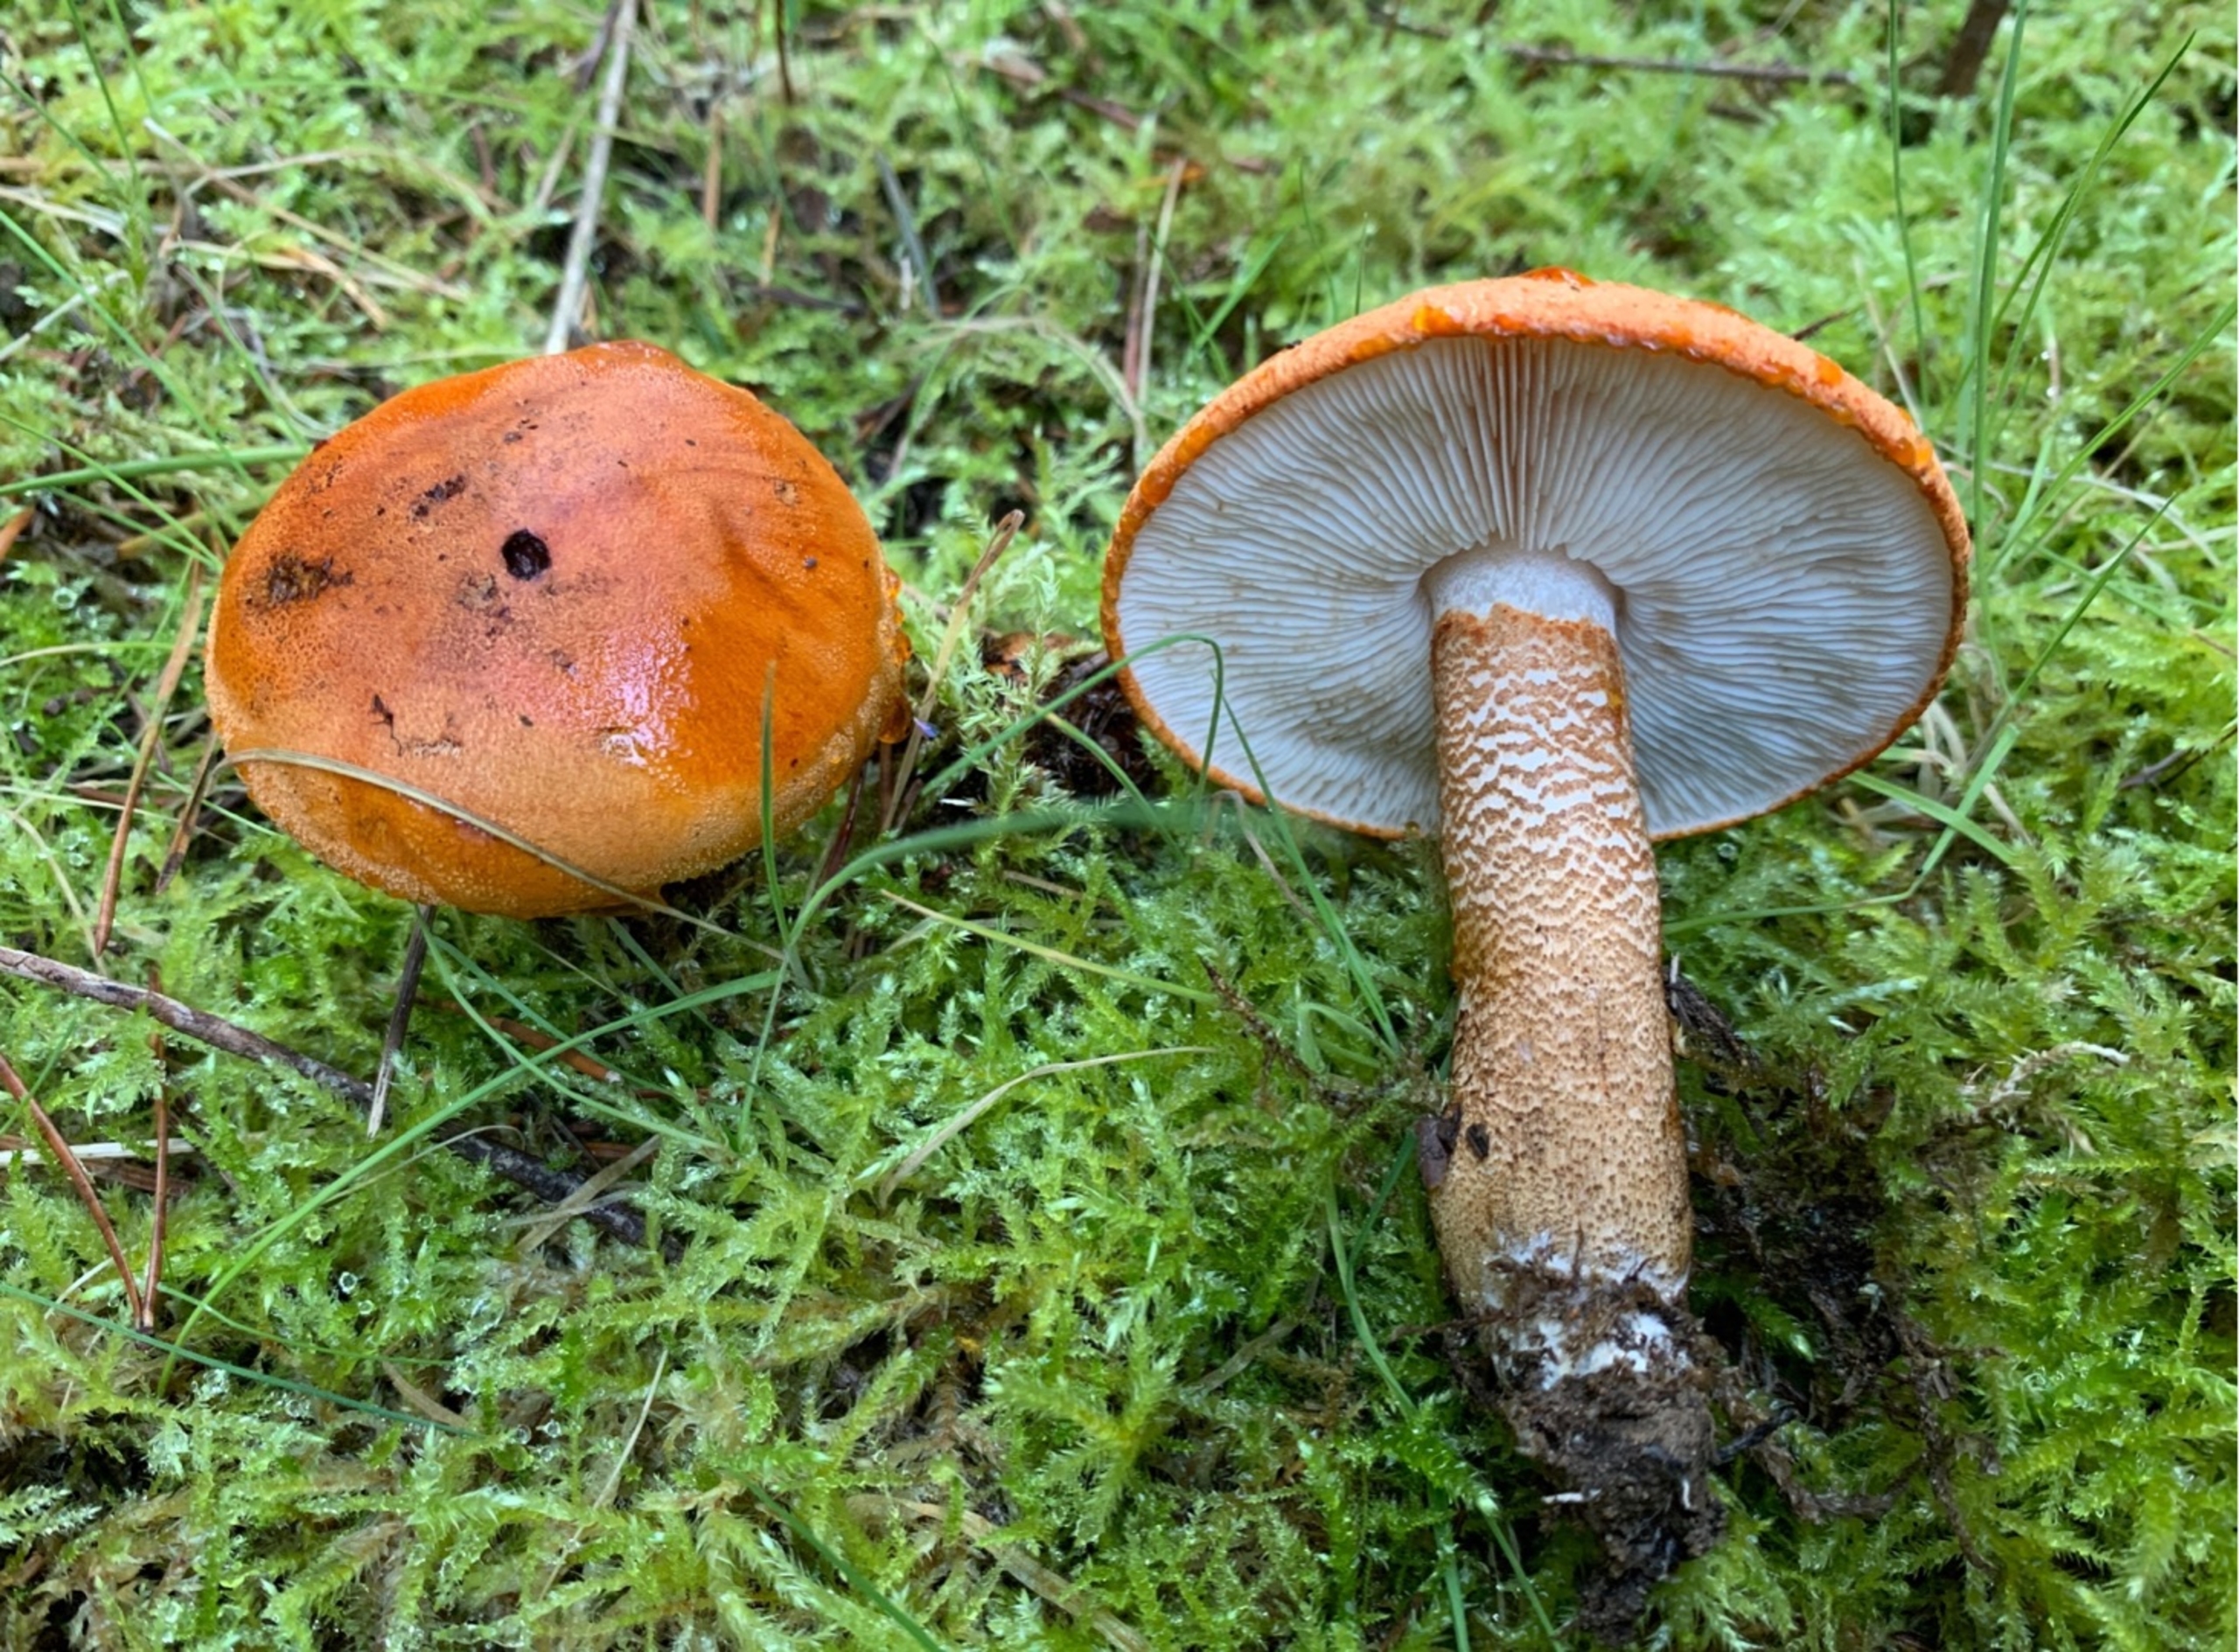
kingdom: Fungi
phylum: Basidiomycota
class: Agaricomycetes
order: Agaricales
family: Tricholomataceae
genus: Tricholoma
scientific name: Tricholoma aurantium
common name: Orangegul ridderhat
